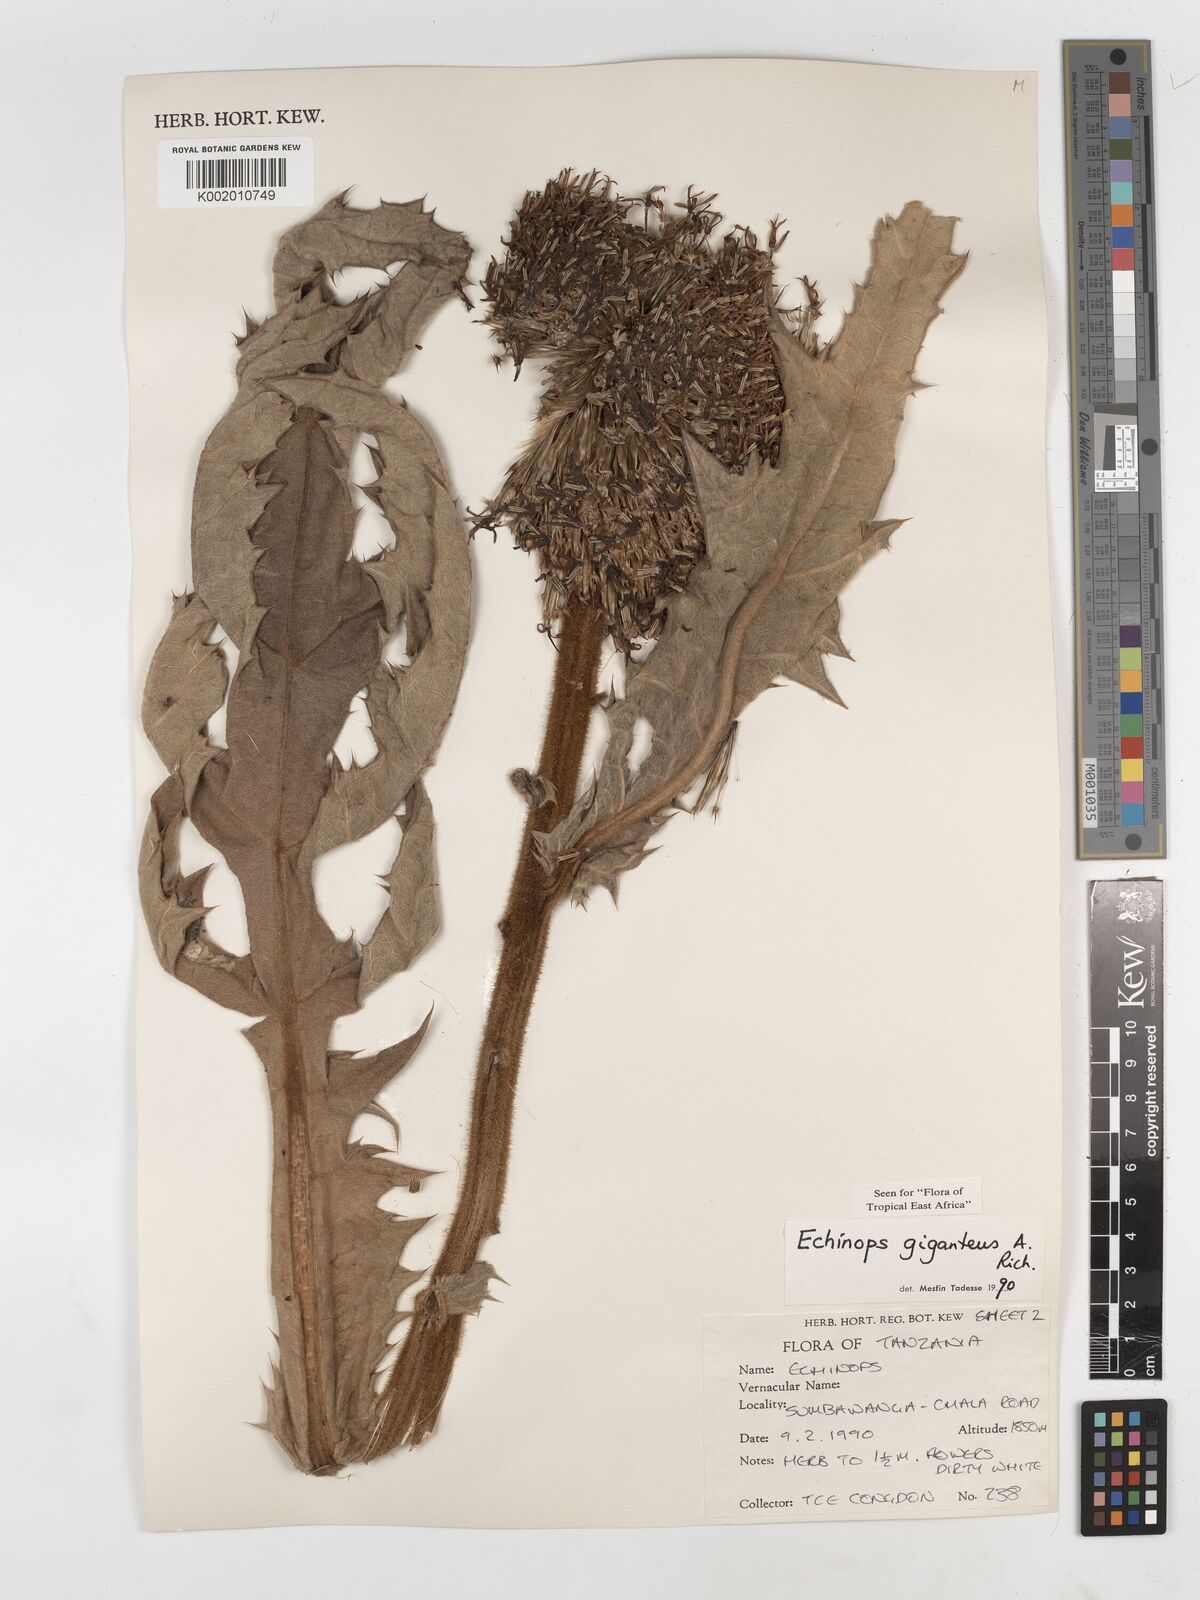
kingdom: Plantae
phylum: Tracheophyta
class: Magnoliopsida
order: Asterales
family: Asteraceae
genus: Echinops
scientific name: Echinops giganteus
